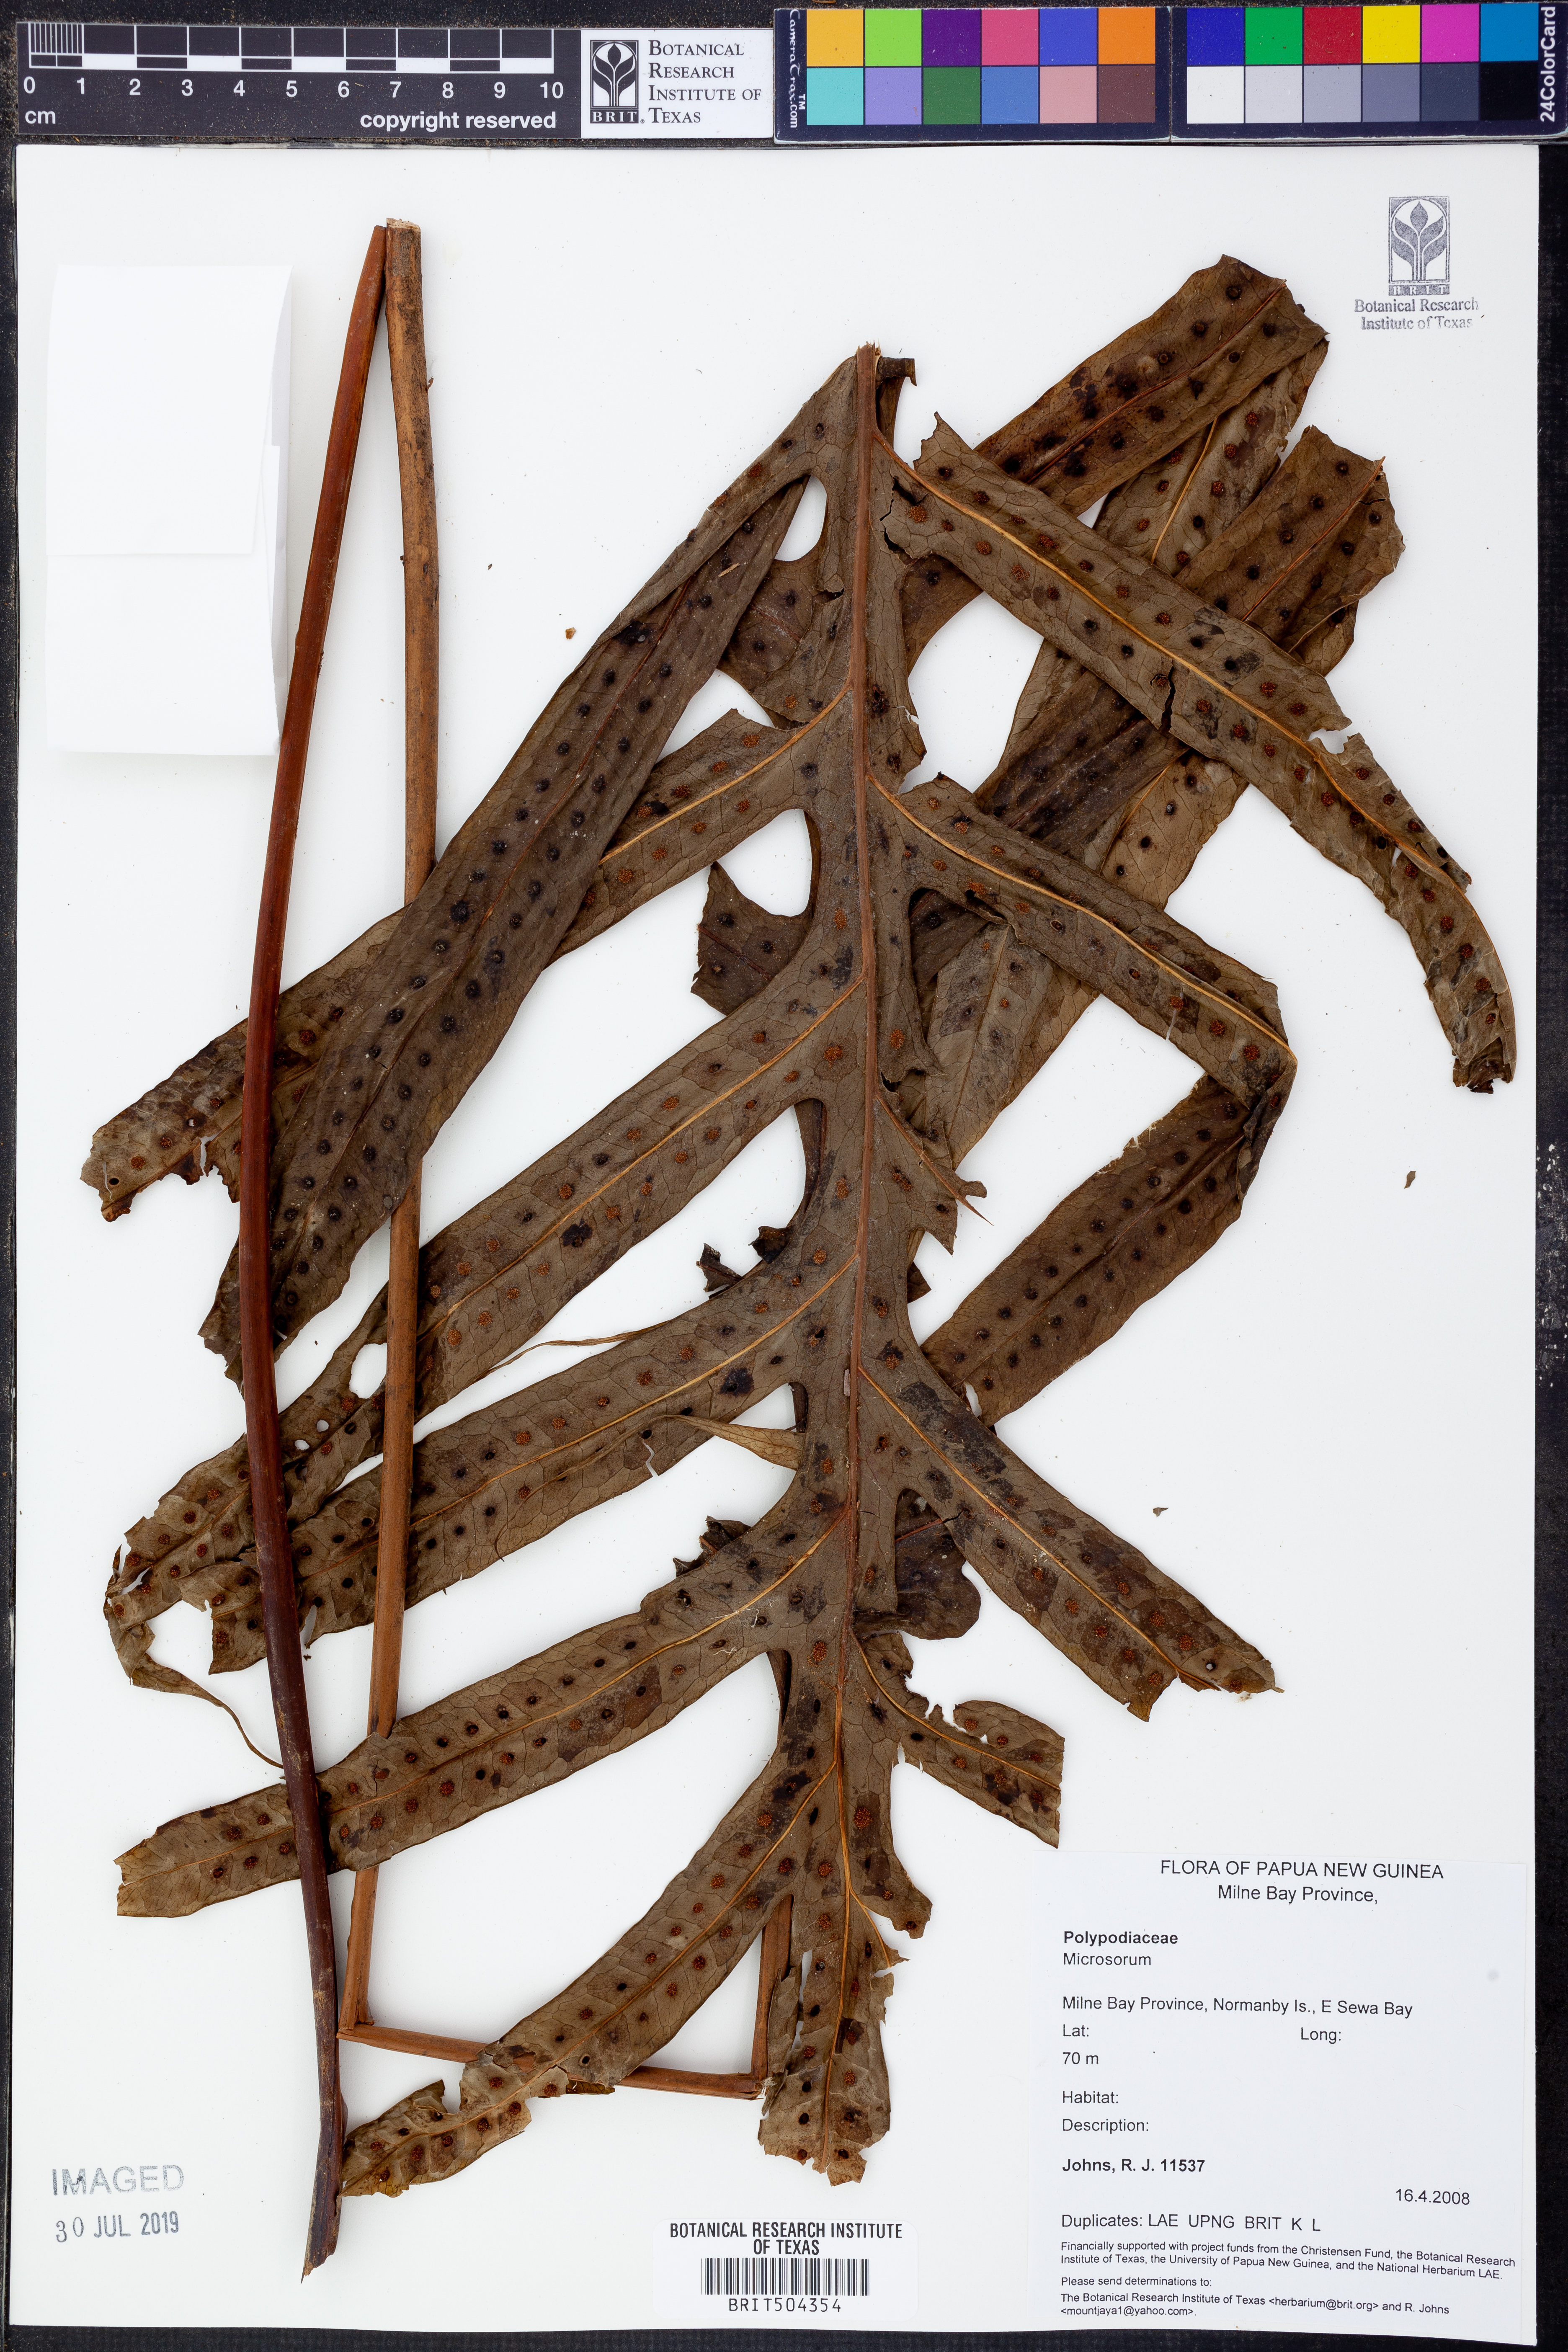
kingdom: Plantae
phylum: Tracheophyta
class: Polypodiopsida
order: Polypodiales
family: Polypodiaceae
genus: Microsorum
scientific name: Microsorum
